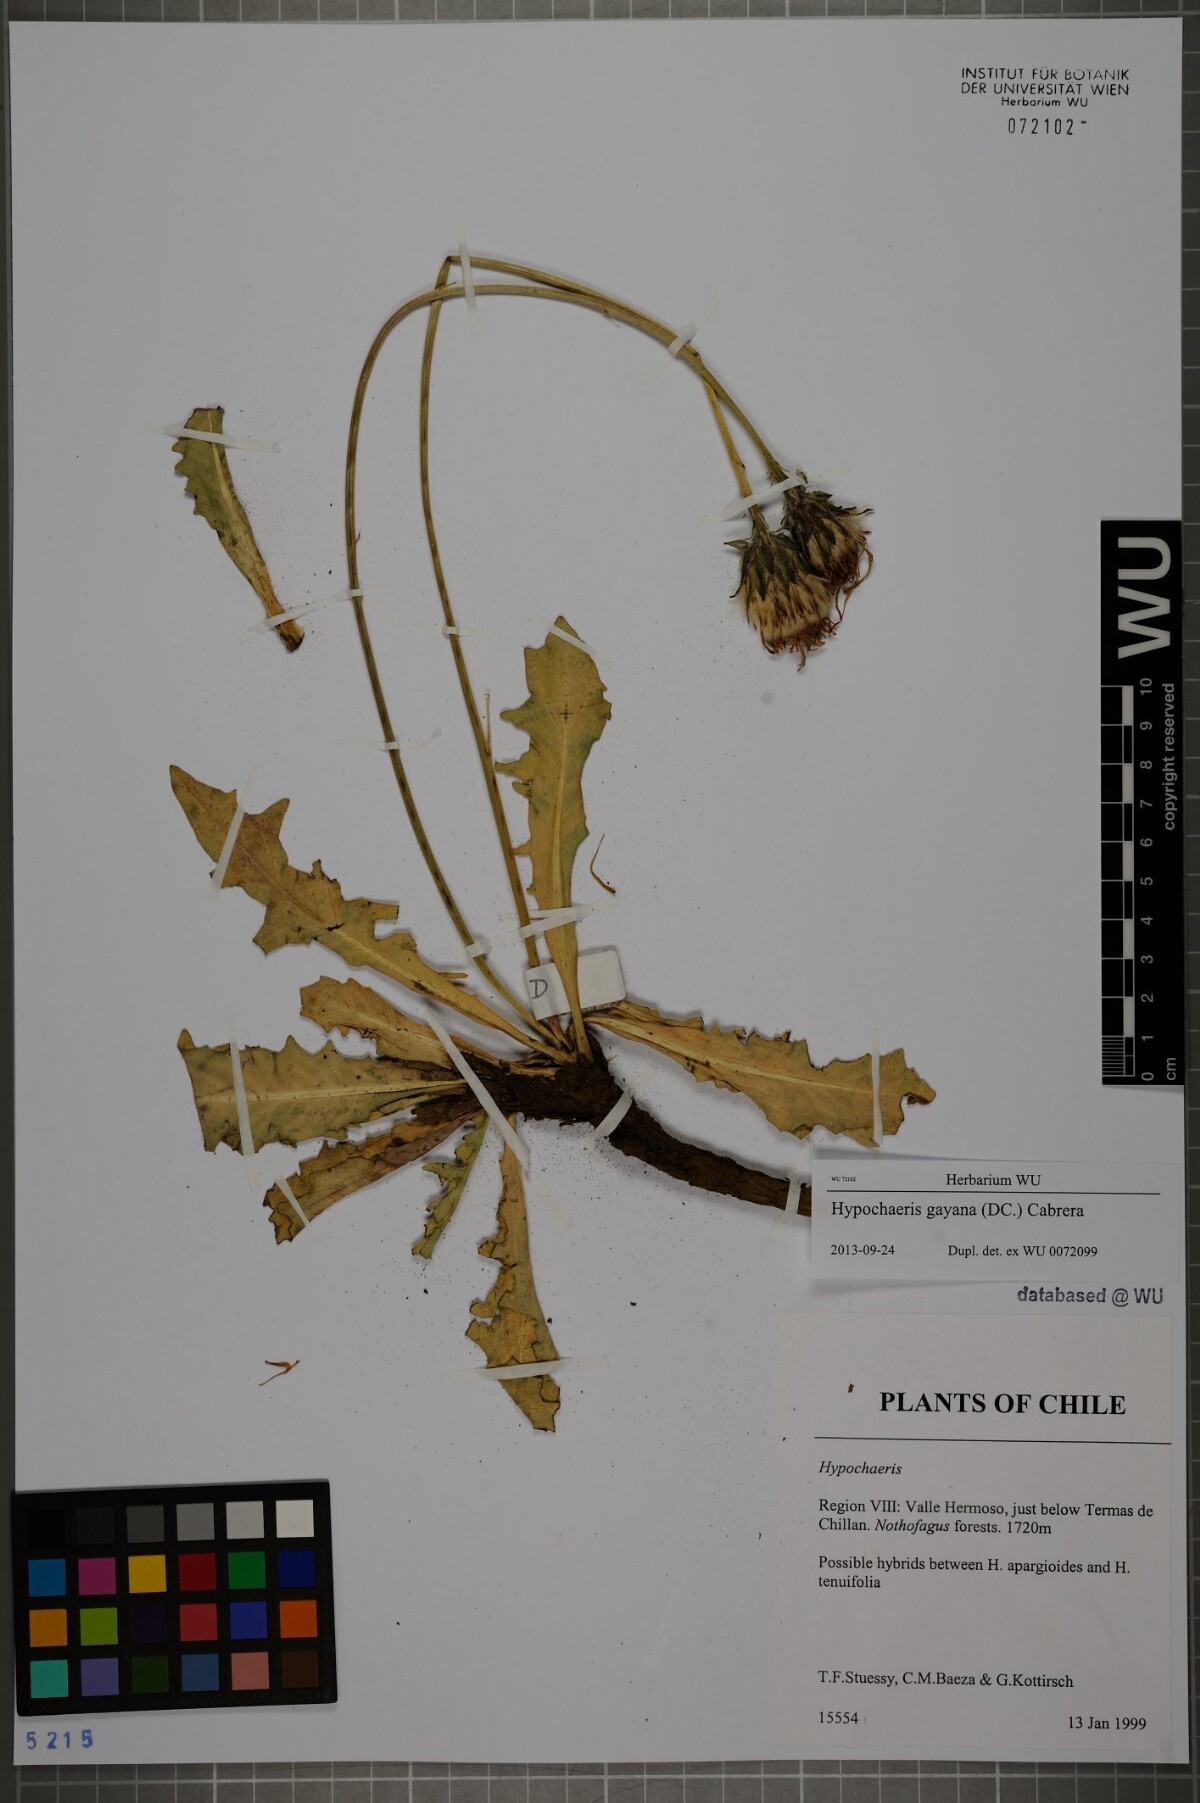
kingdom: Plantae
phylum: Tracheophyta
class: Magnoliopsida
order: Asterales
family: Asteraceae
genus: Hypochaeris
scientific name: Hypochaeris melanolepis
